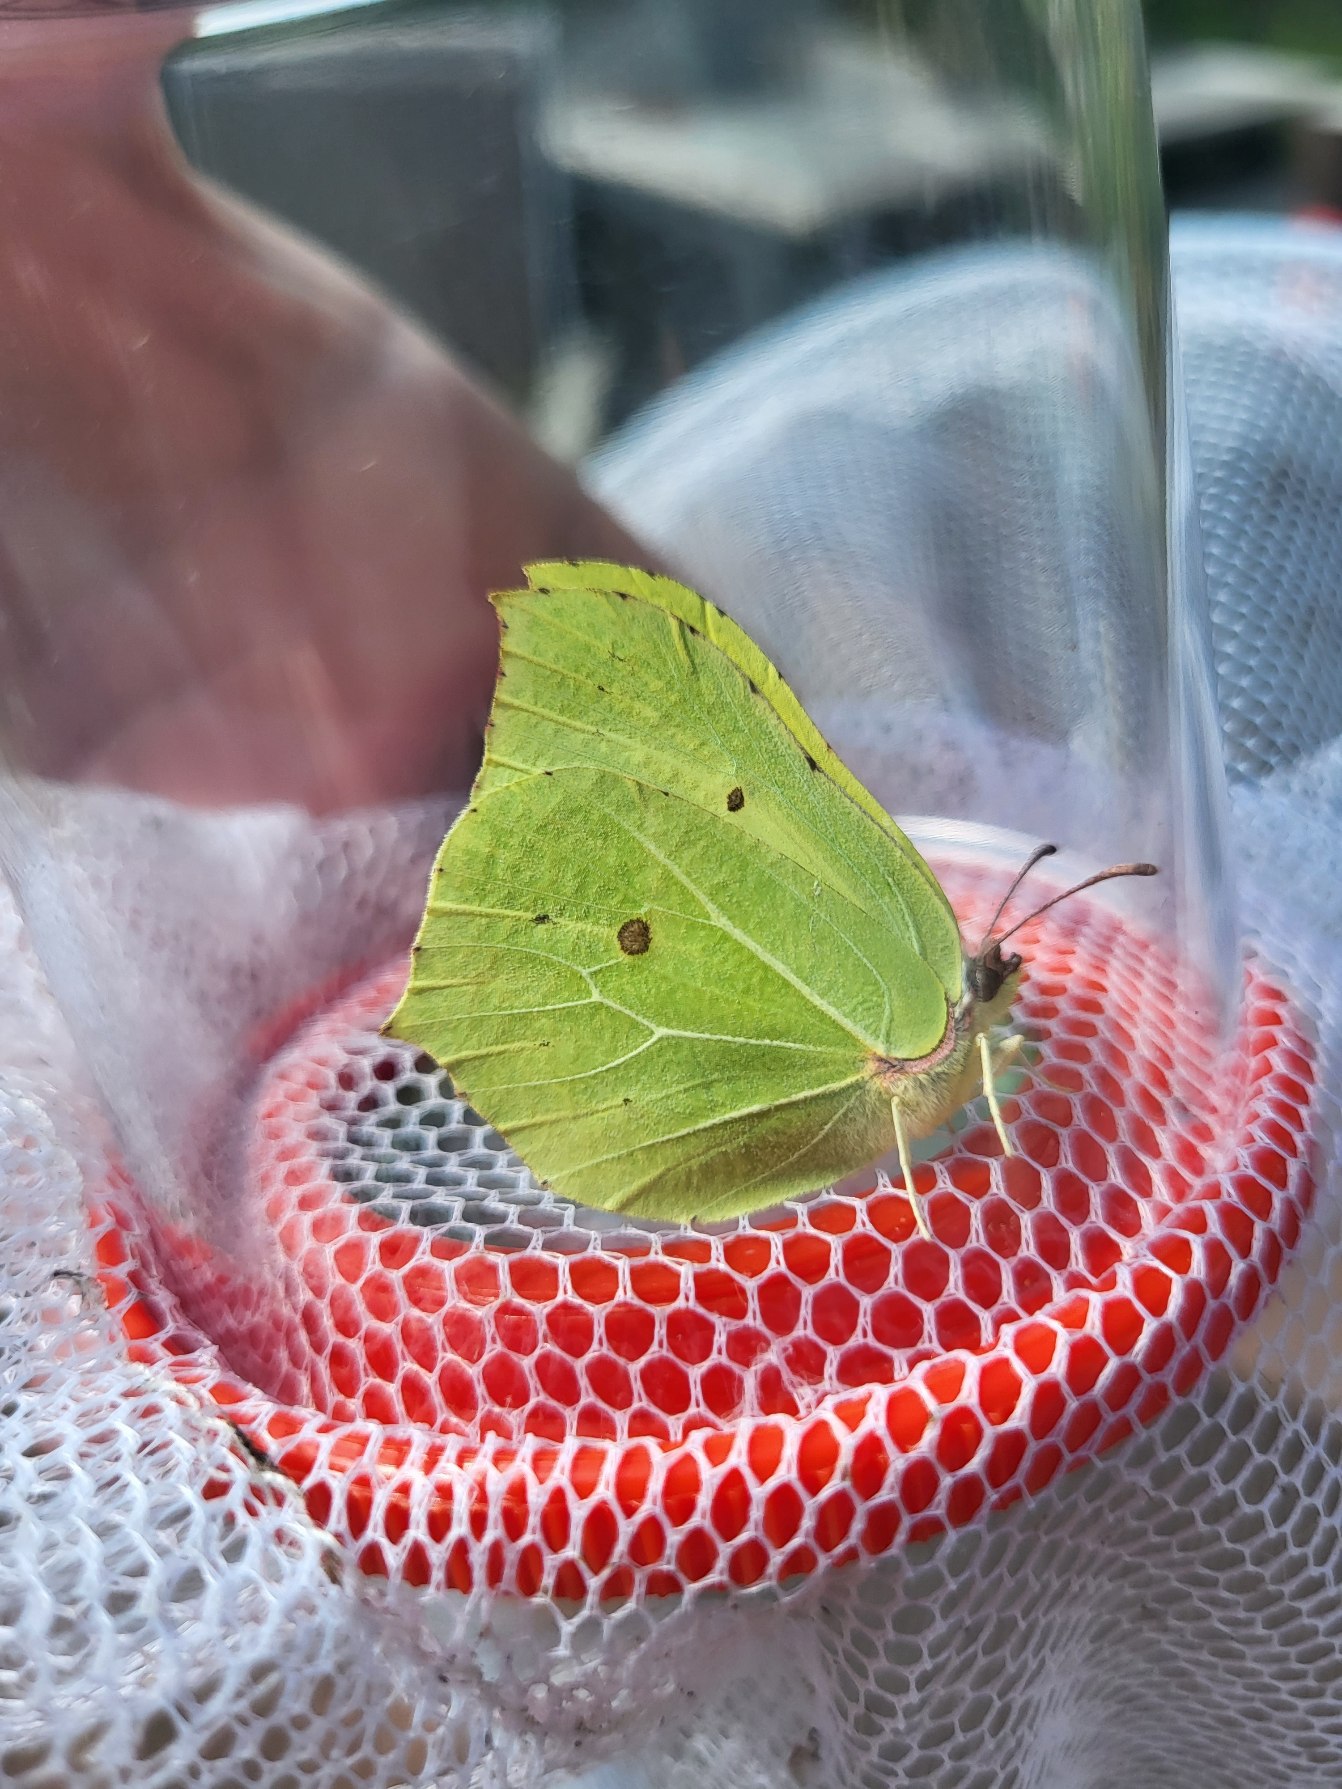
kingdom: Animalia
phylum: Arthropoda
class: Insecta
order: Lepidoptera
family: Pieridae
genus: Gonepteryx
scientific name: Gonepteryx rhamni
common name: Citronsommerfugl
